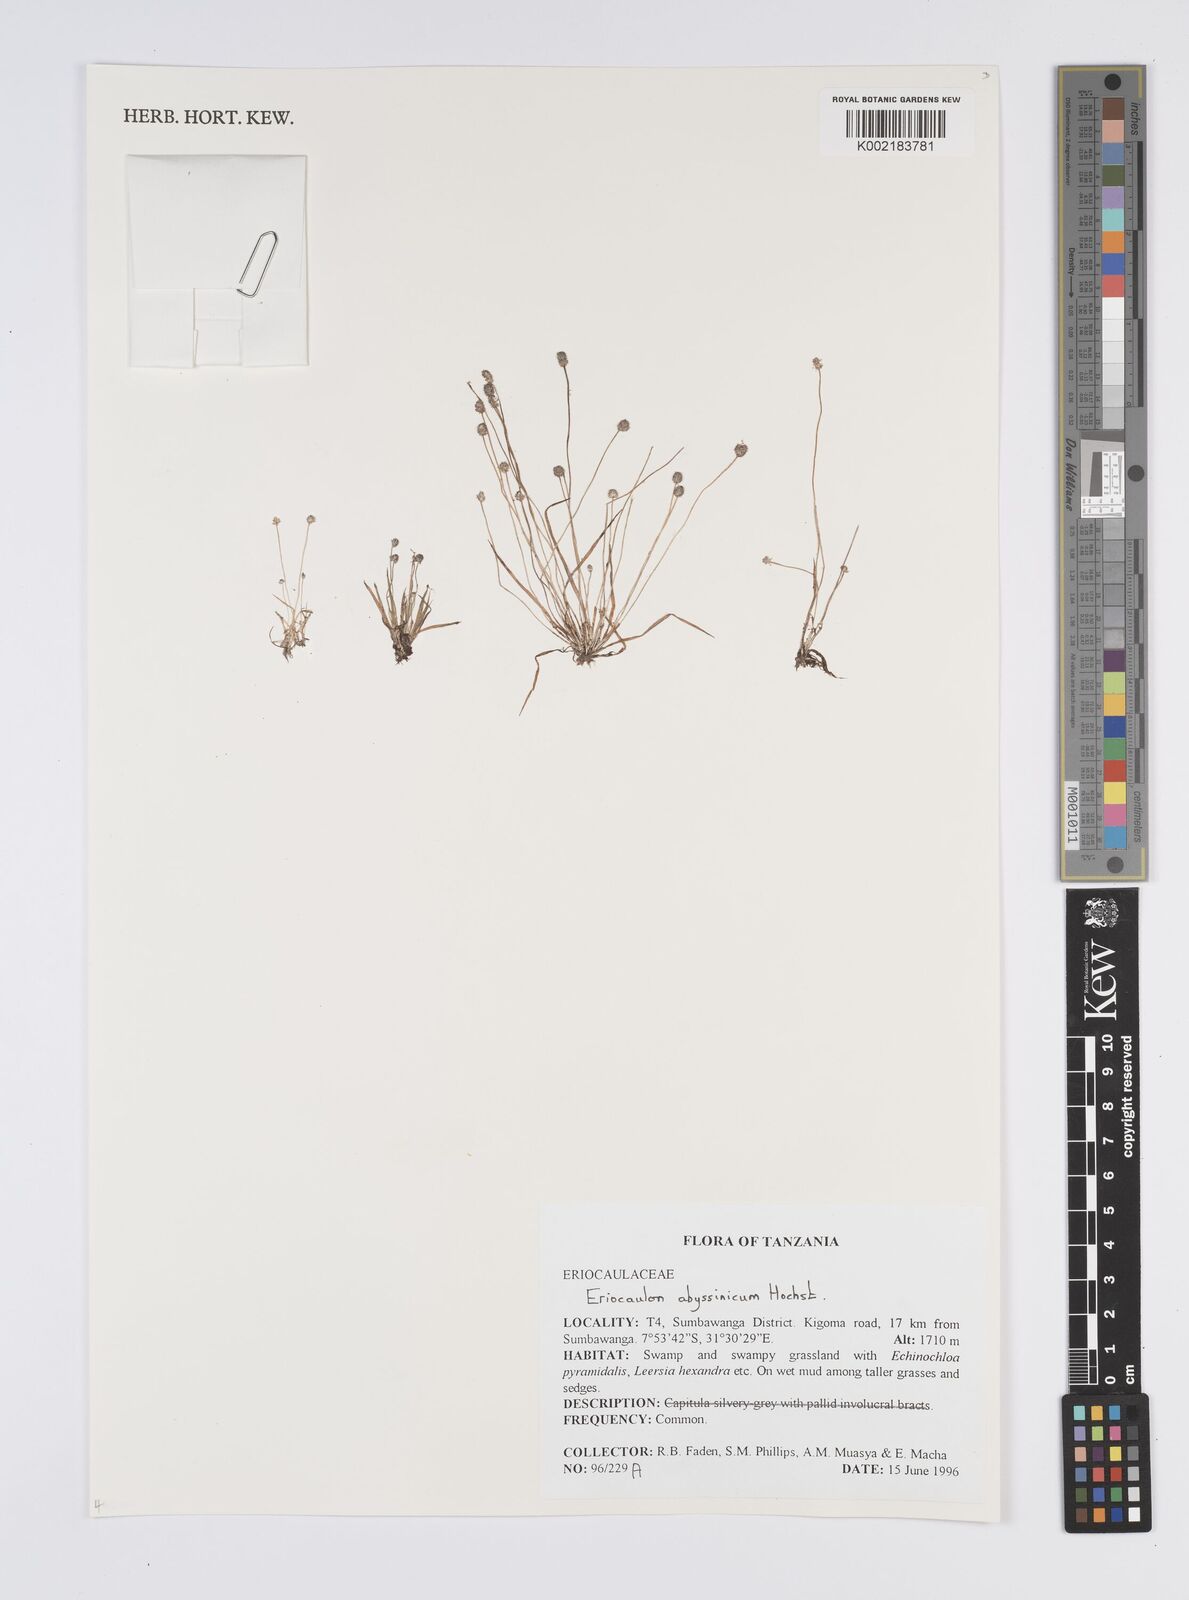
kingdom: Plantae
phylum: Tracheophyta
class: Liliopsida
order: Poales
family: Eriocaulaceae
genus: Eriocaulon
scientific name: Eriocaulon abyssinicum
